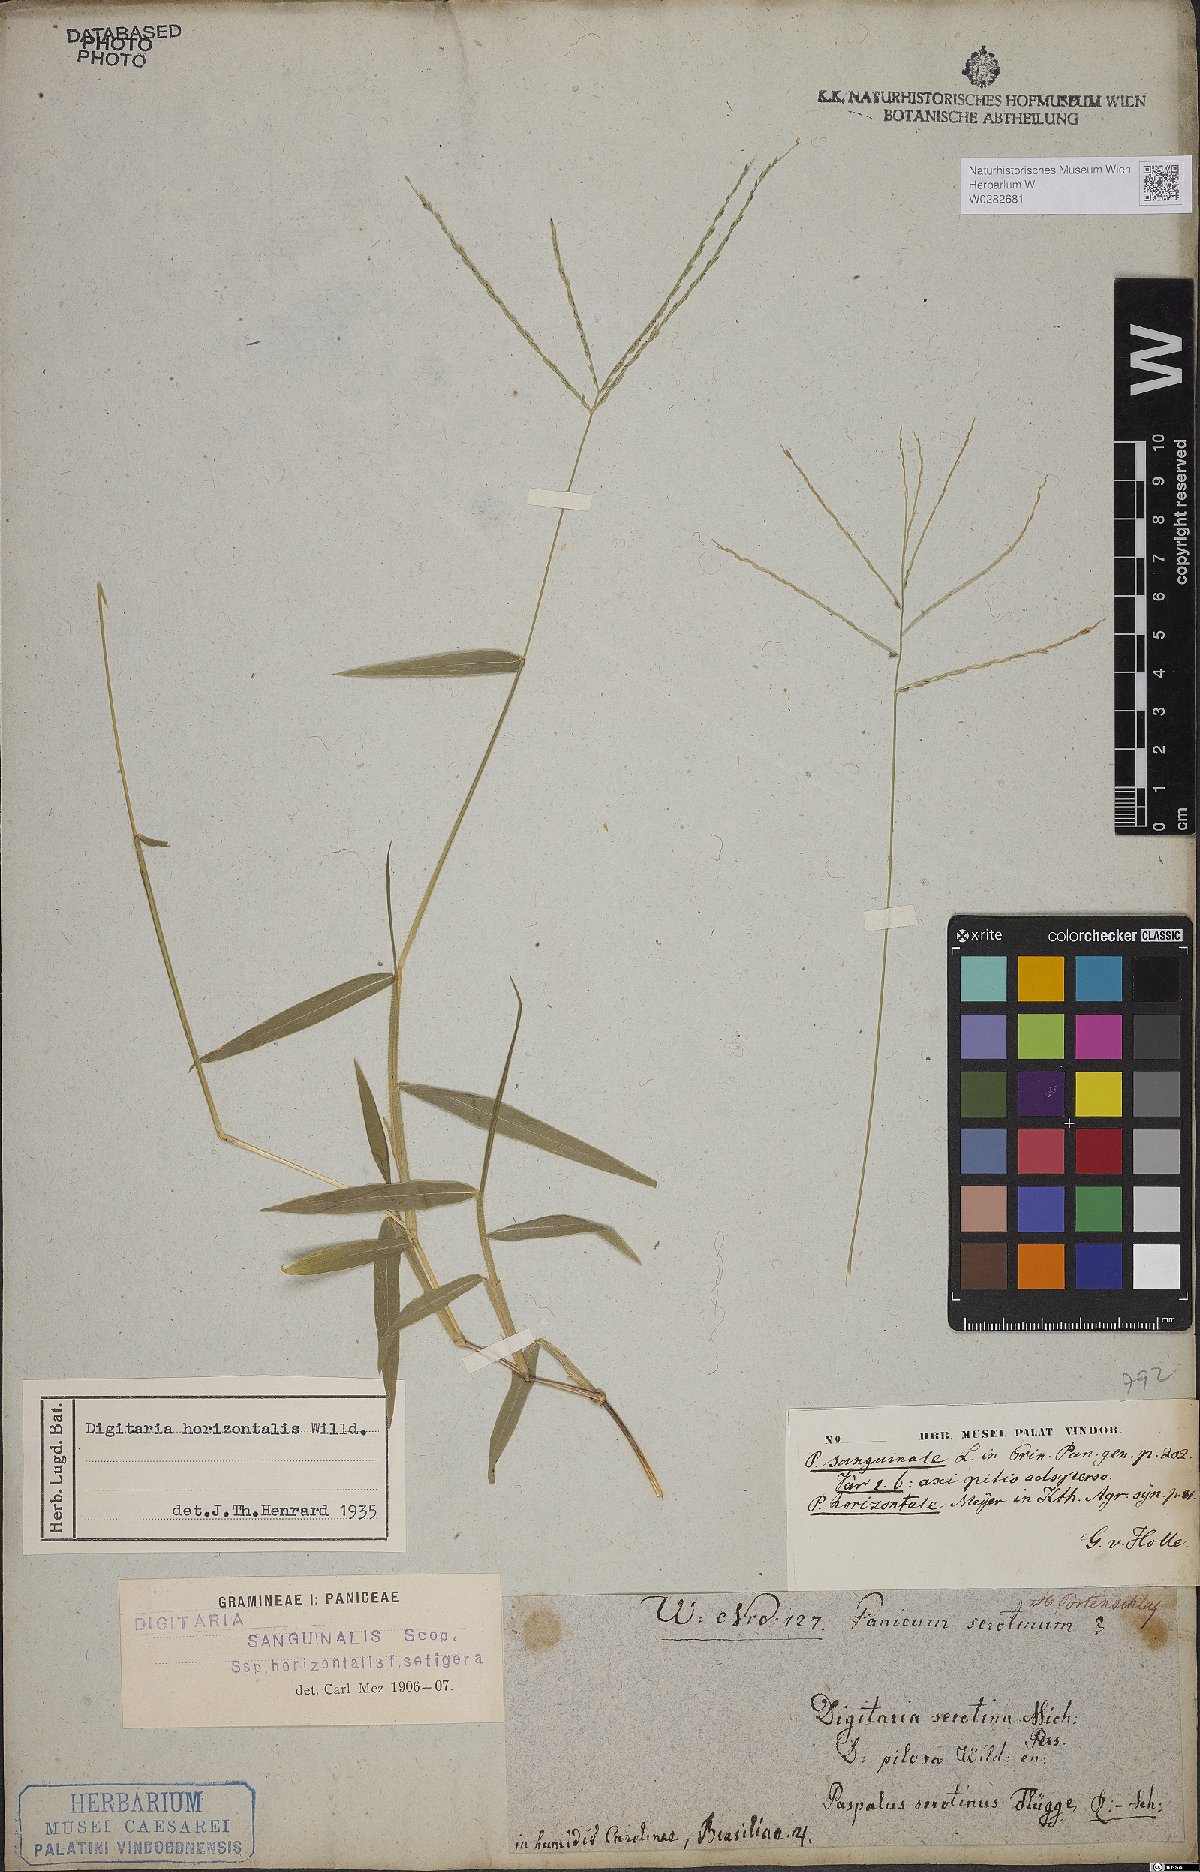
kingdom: Plantae
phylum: Tracheophyta
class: Liliopsida
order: Poales
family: Poaceae
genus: Digitaria
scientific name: Digitaria horizontalis
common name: Jamaican crabgrass
